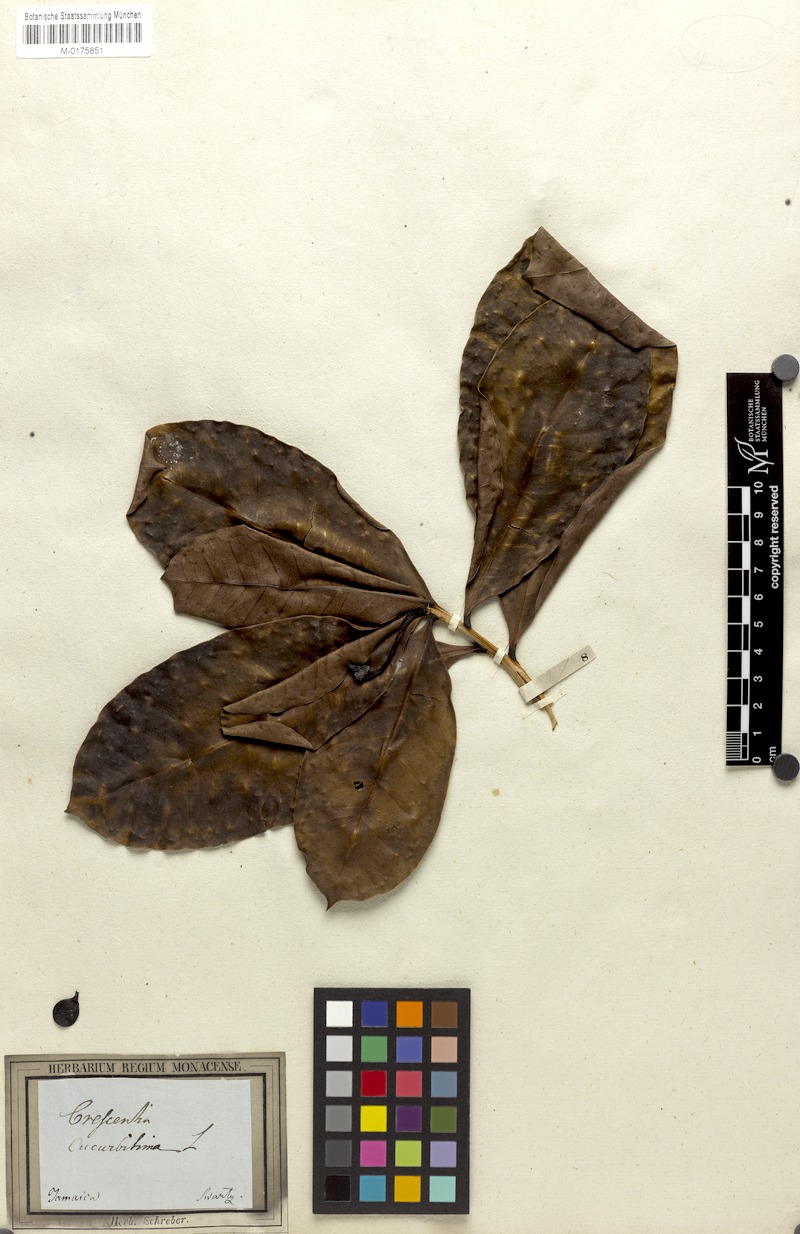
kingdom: Plantae
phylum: Tracheophyta
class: Magnoliopsida
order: Lamiales
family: Bignoniaceae
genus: Amphitecna
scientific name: Amphitecna latifolia
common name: Black-calabash
